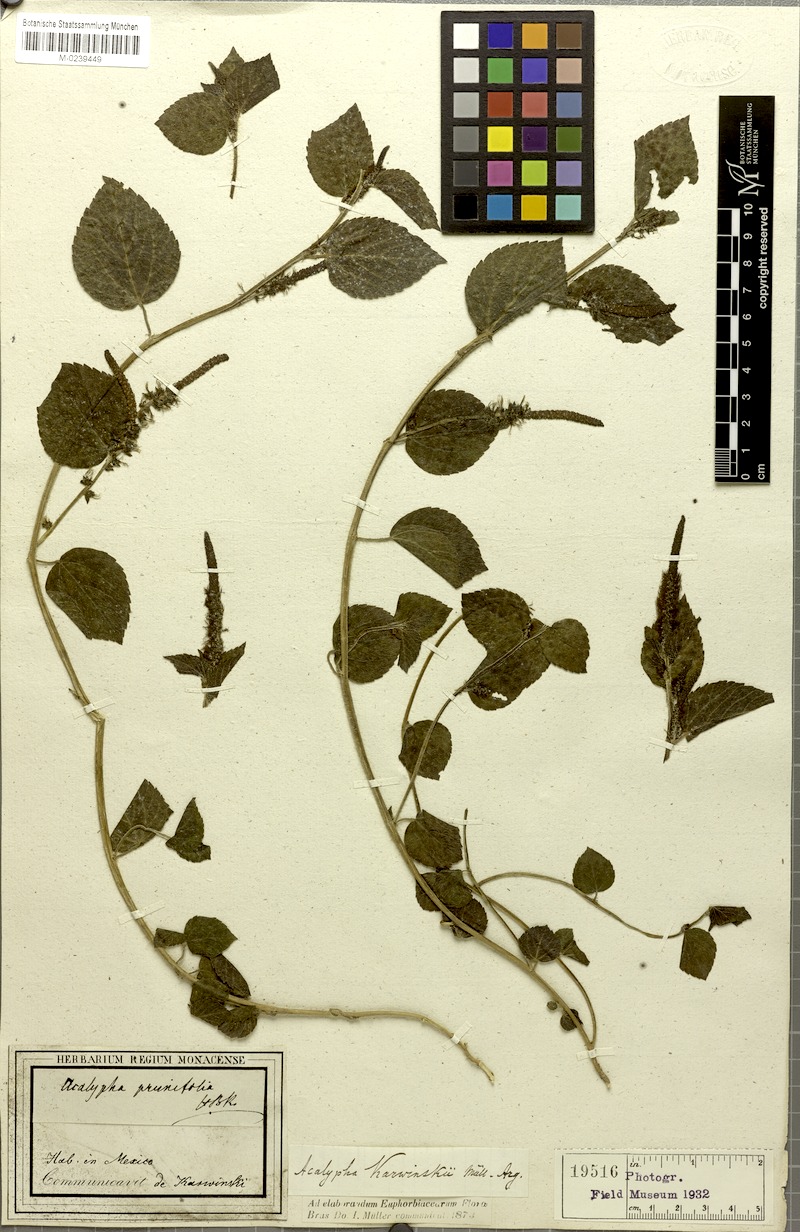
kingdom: Plantae
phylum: Tracheophyta
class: Magnoliopsida
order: Malpighiales
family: Euphorbiaceae
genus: Acalypha
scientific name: Acalypha karwinskii
